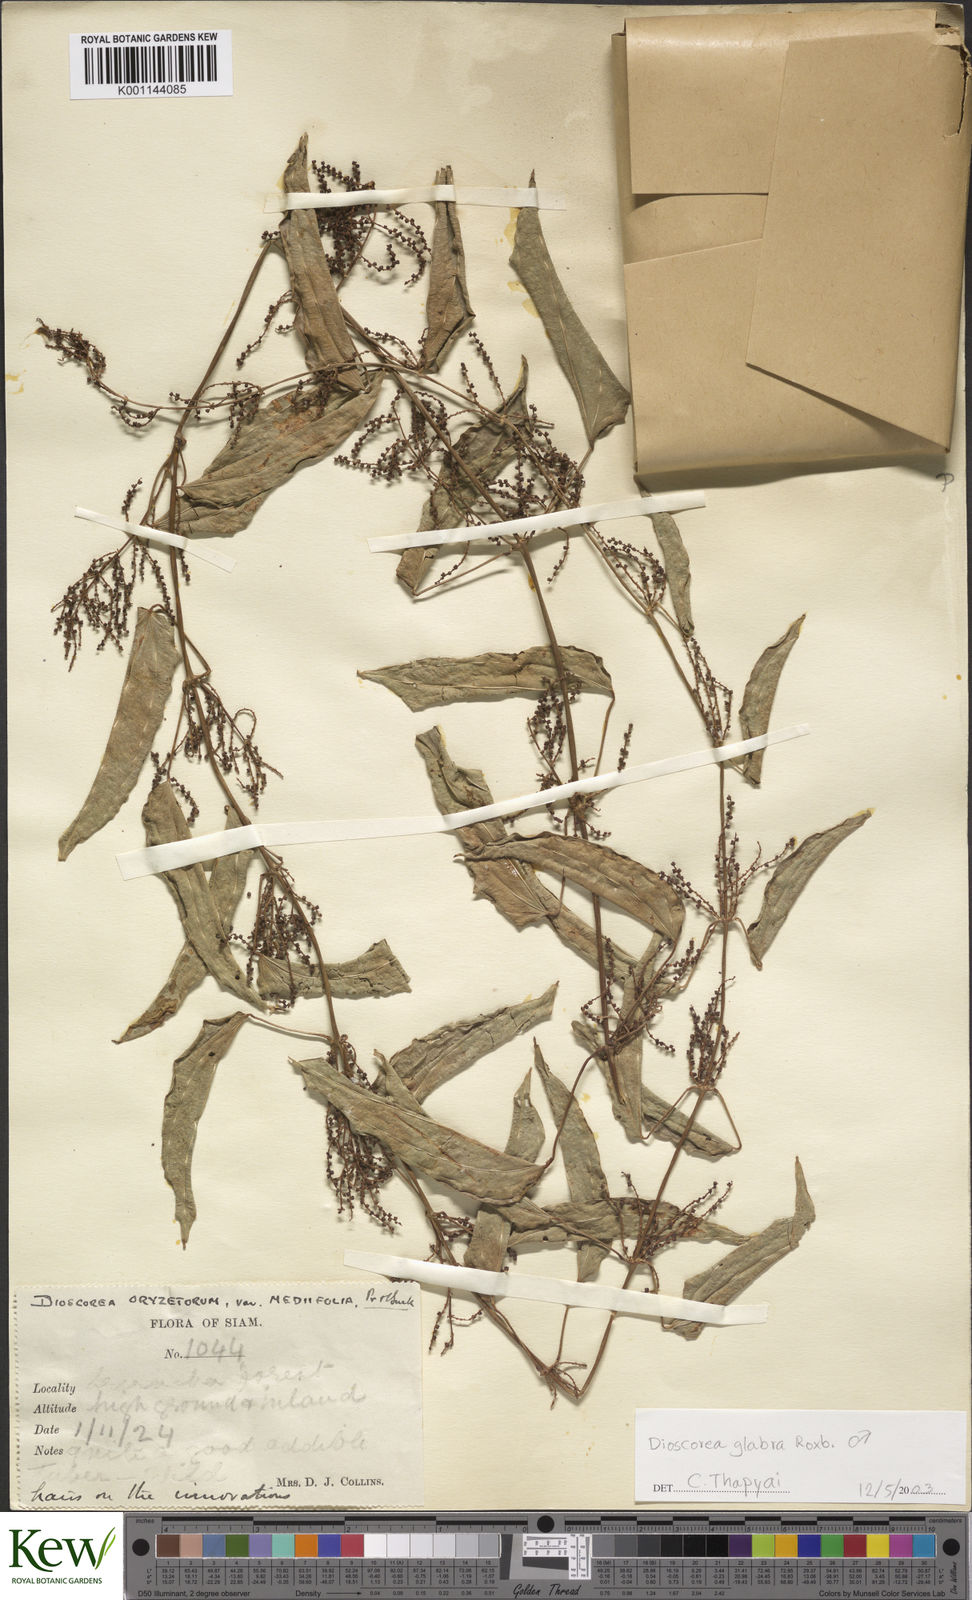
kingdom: Plantae
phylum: Tracheophyta
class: Liliopsida
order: Dioscoreales
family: Dioscoreaceae
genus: Dioscorea
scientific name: Dioscorea glabra
